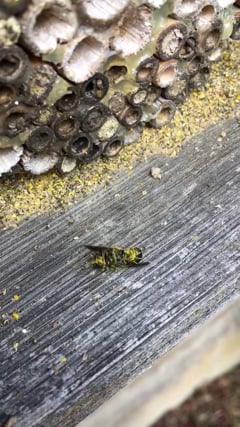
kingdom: Animalia
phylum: Arthropoda
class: Insecta
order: Hymenoptera
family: Megachilidae
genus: Chelostoma
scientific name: Chelostoma florisomne
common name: Sleepy carpenter bee
